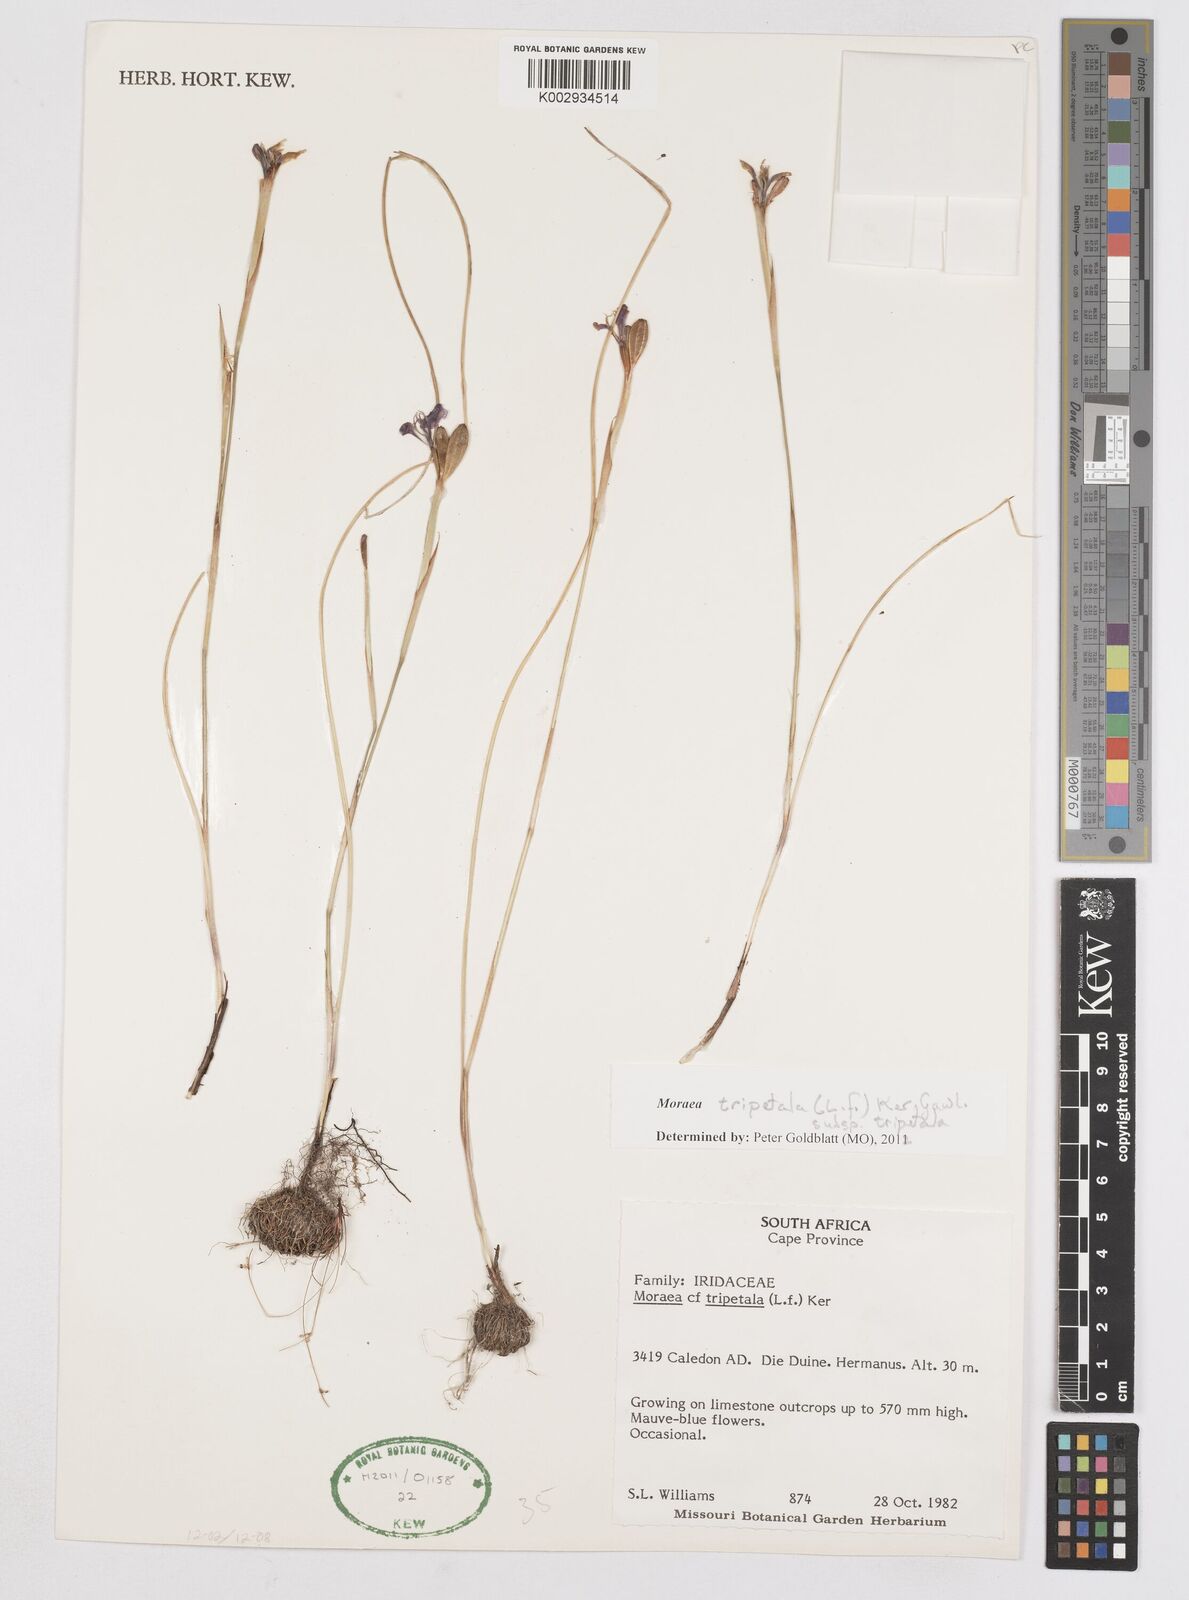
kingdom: Plantae
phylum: Tracheophyta
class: Liliopsida
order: Asparagales
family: Iridaceae
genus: Moraea
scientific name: Moraea tripetala
